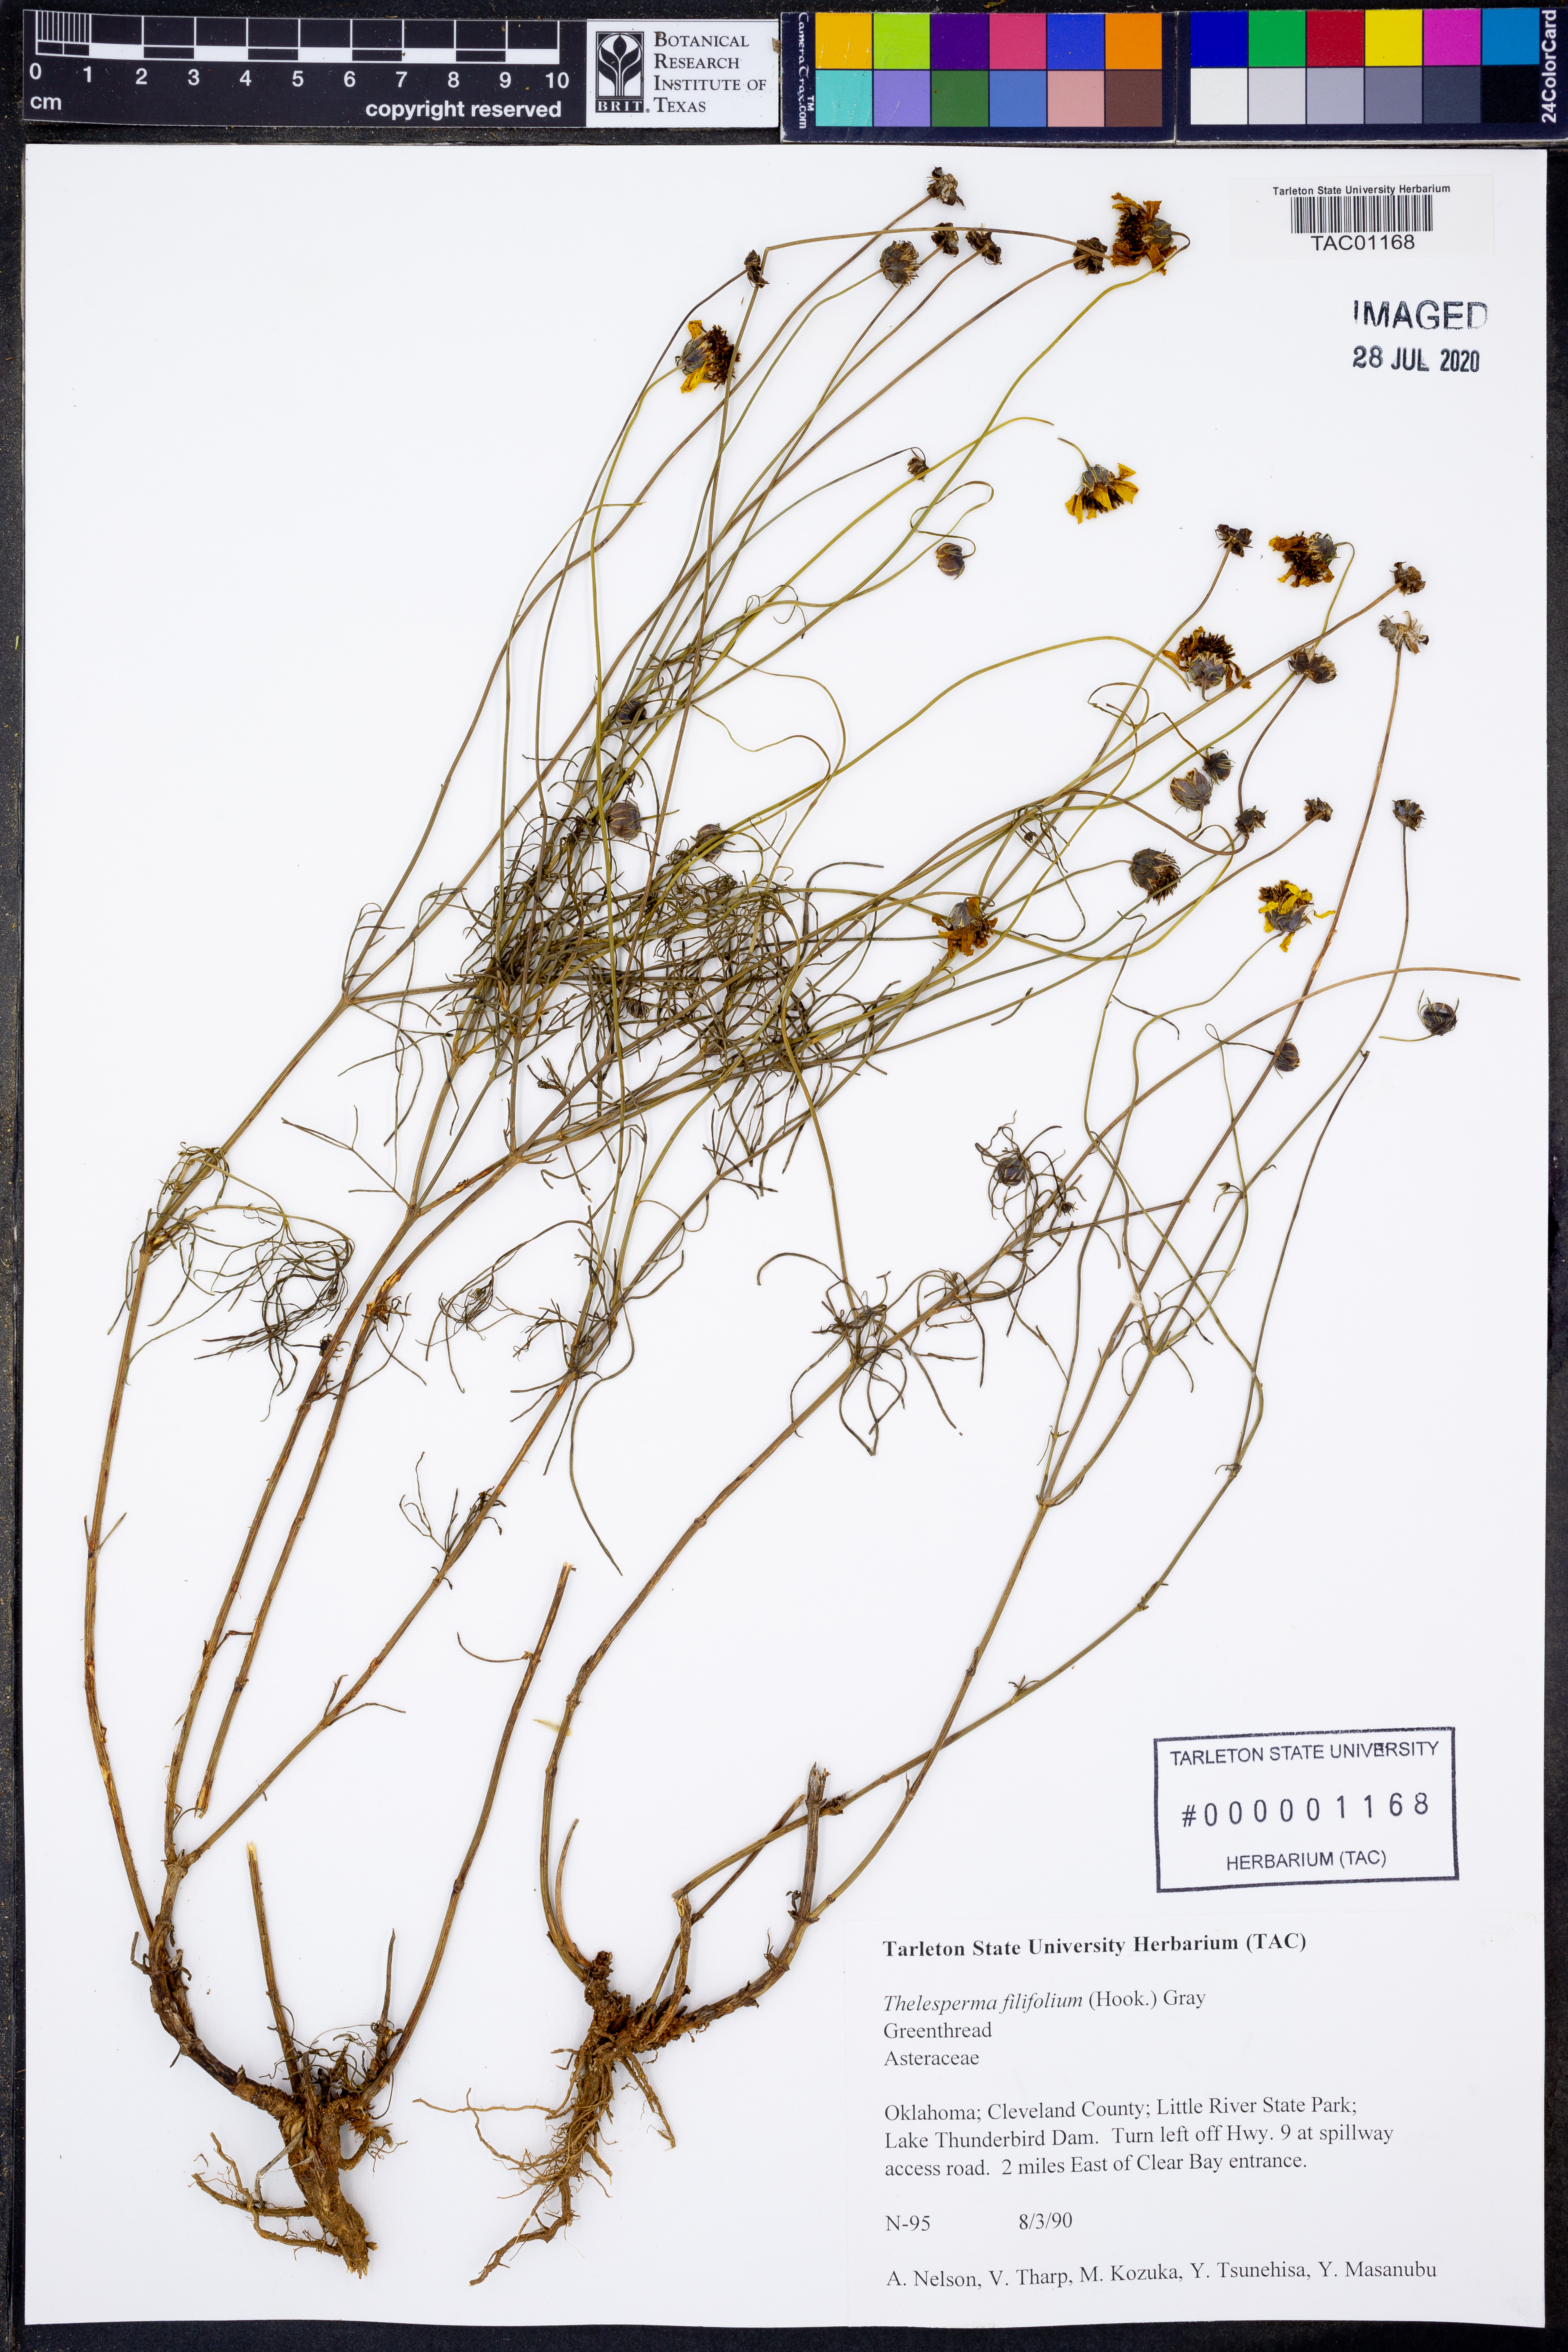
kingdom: Plantae
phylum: Tracheophyta
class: Magnoliopsida
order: Asterales
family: Asteraceae
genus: Thelesperma
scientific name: Thelesperma filifolium
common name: Stiff greenthread
